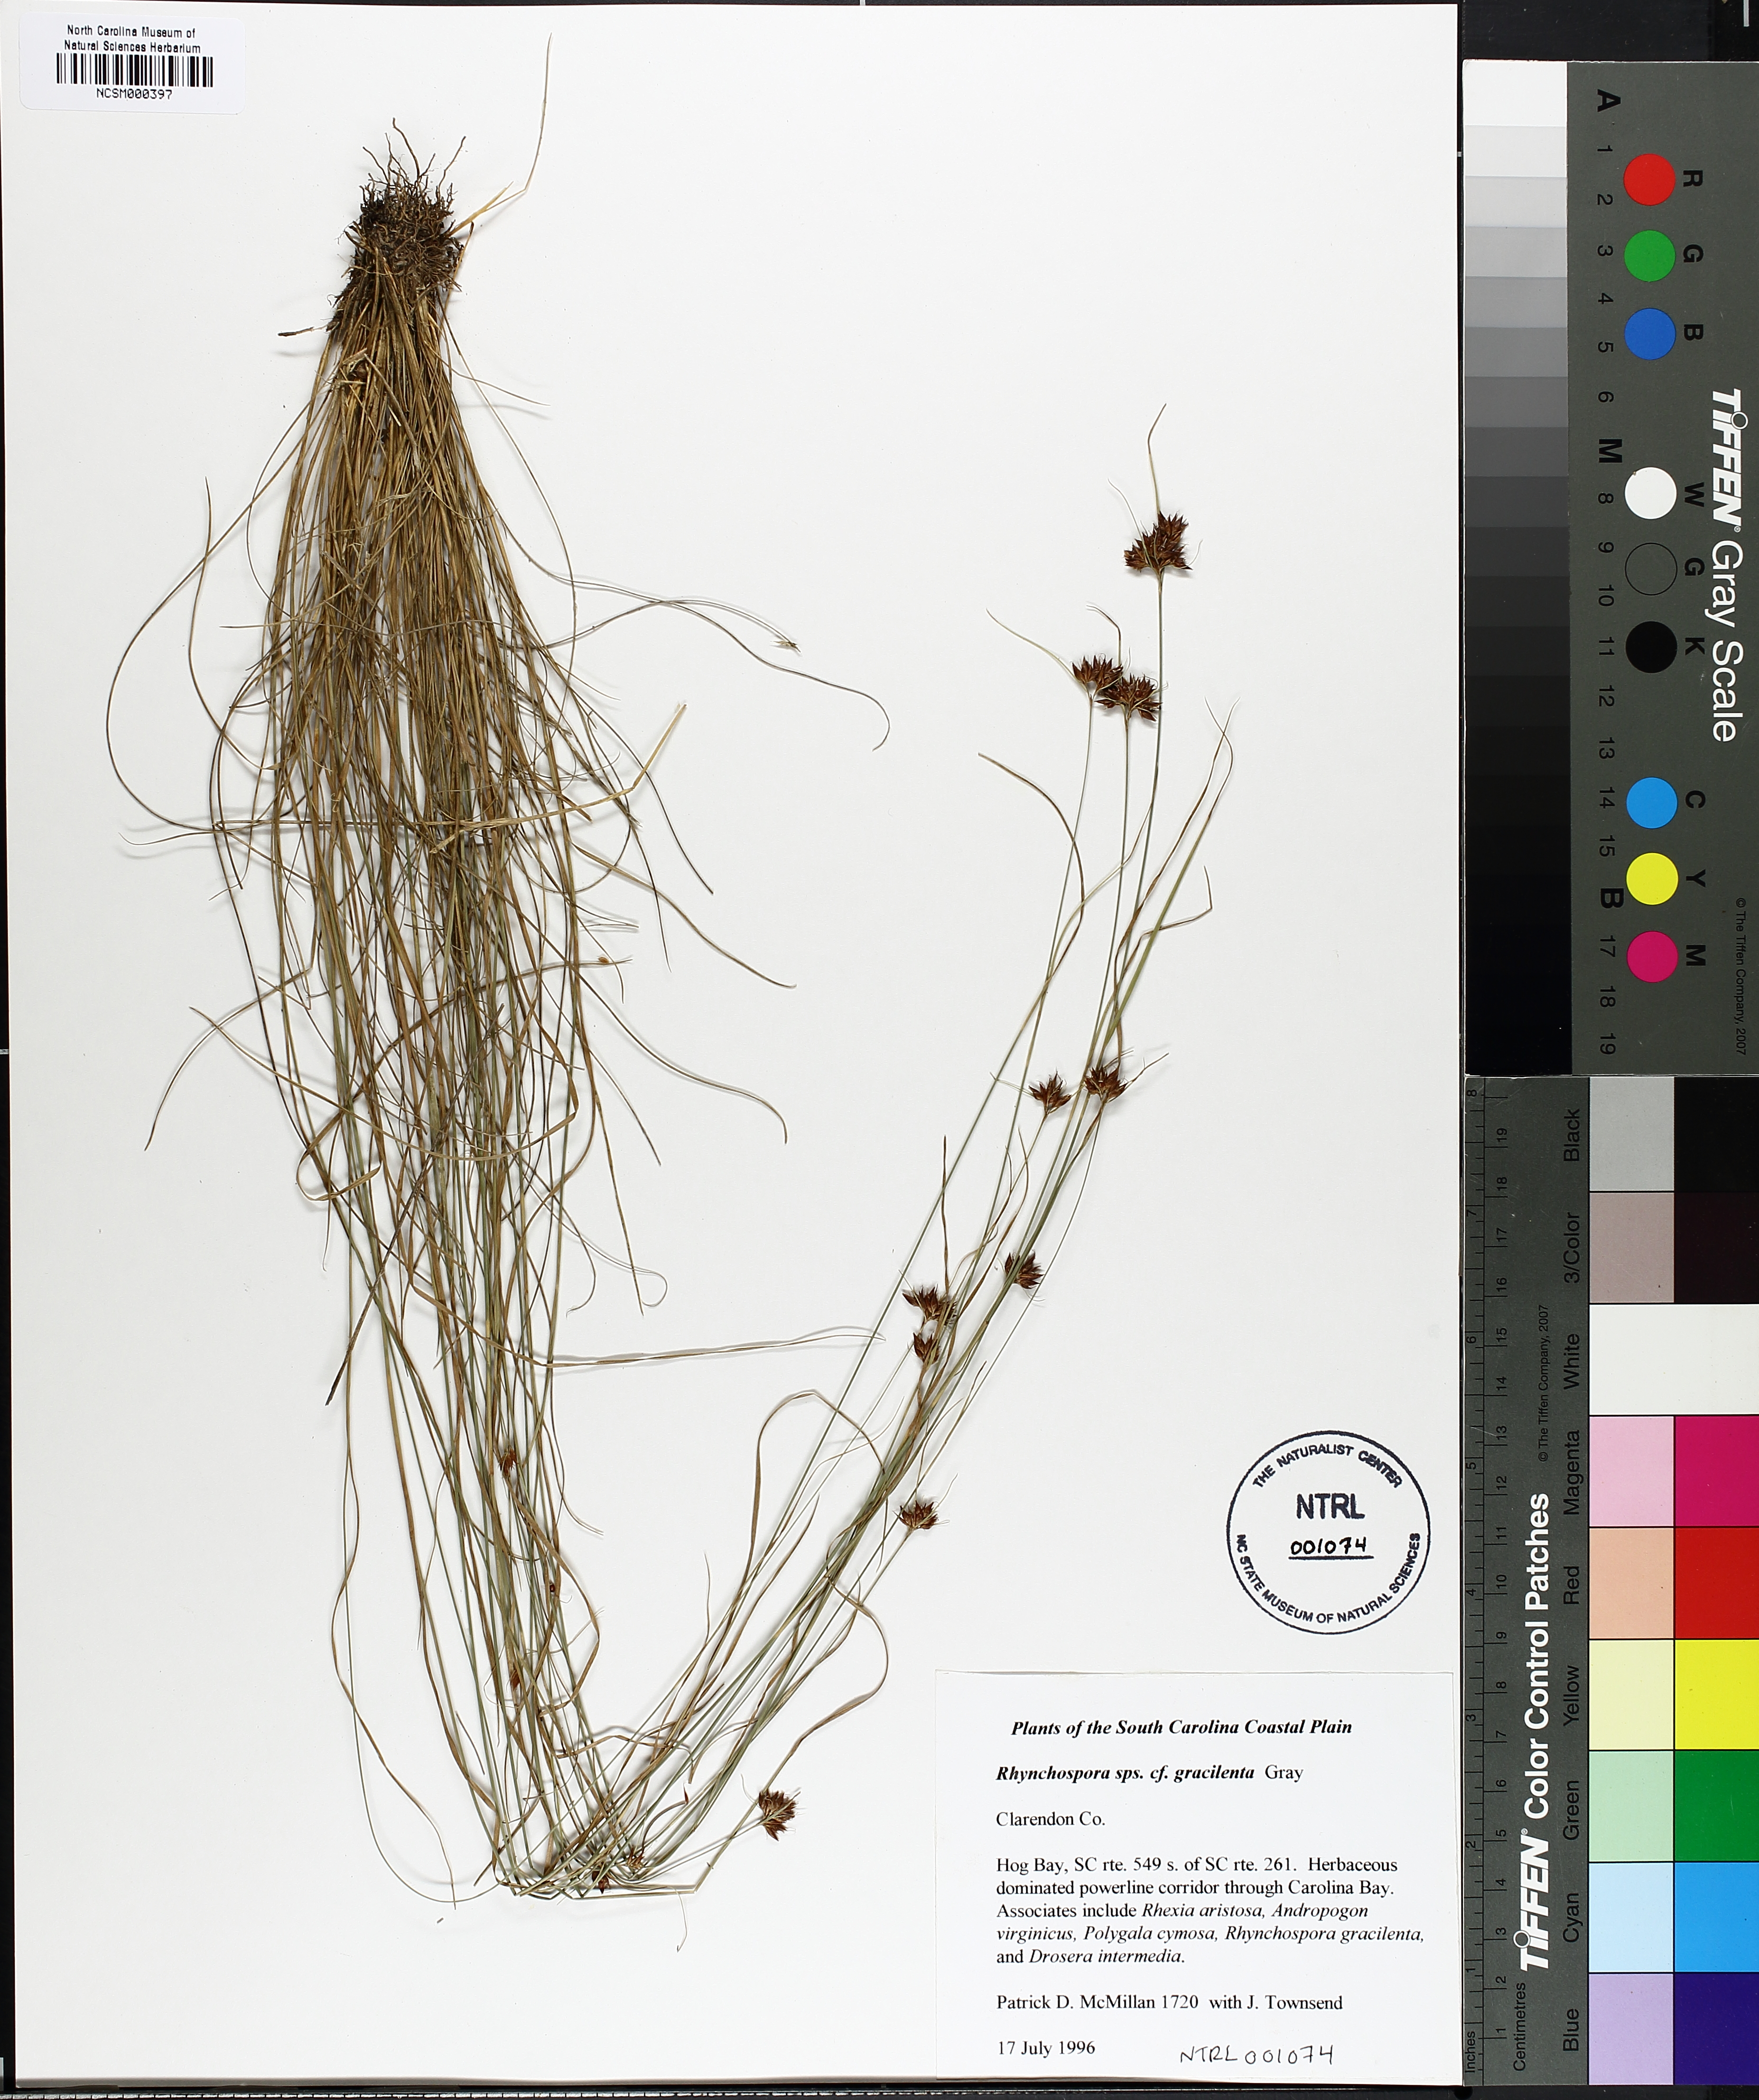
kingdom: Plantae
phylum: Tracheophyta
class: Liliopsida
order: Poales
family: Cyperaceae
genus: Rhynchospora
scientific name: Rhynchospora gracilenta
